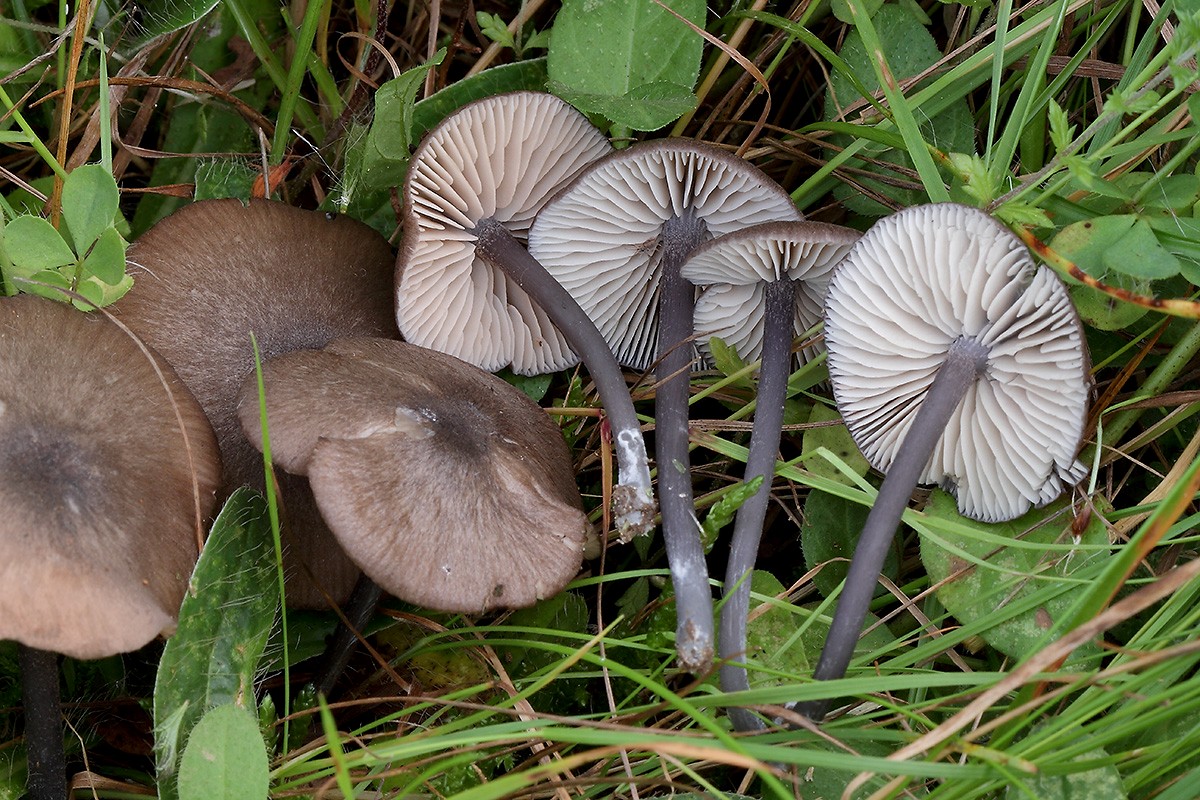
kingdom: Fungi
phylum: Basidiomycota
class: Agaricomycetes
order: Agaricales
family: Entolomataceae
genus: Entoloma
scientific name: Entoloma atrocoeruleum
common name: sortblå rødblad
